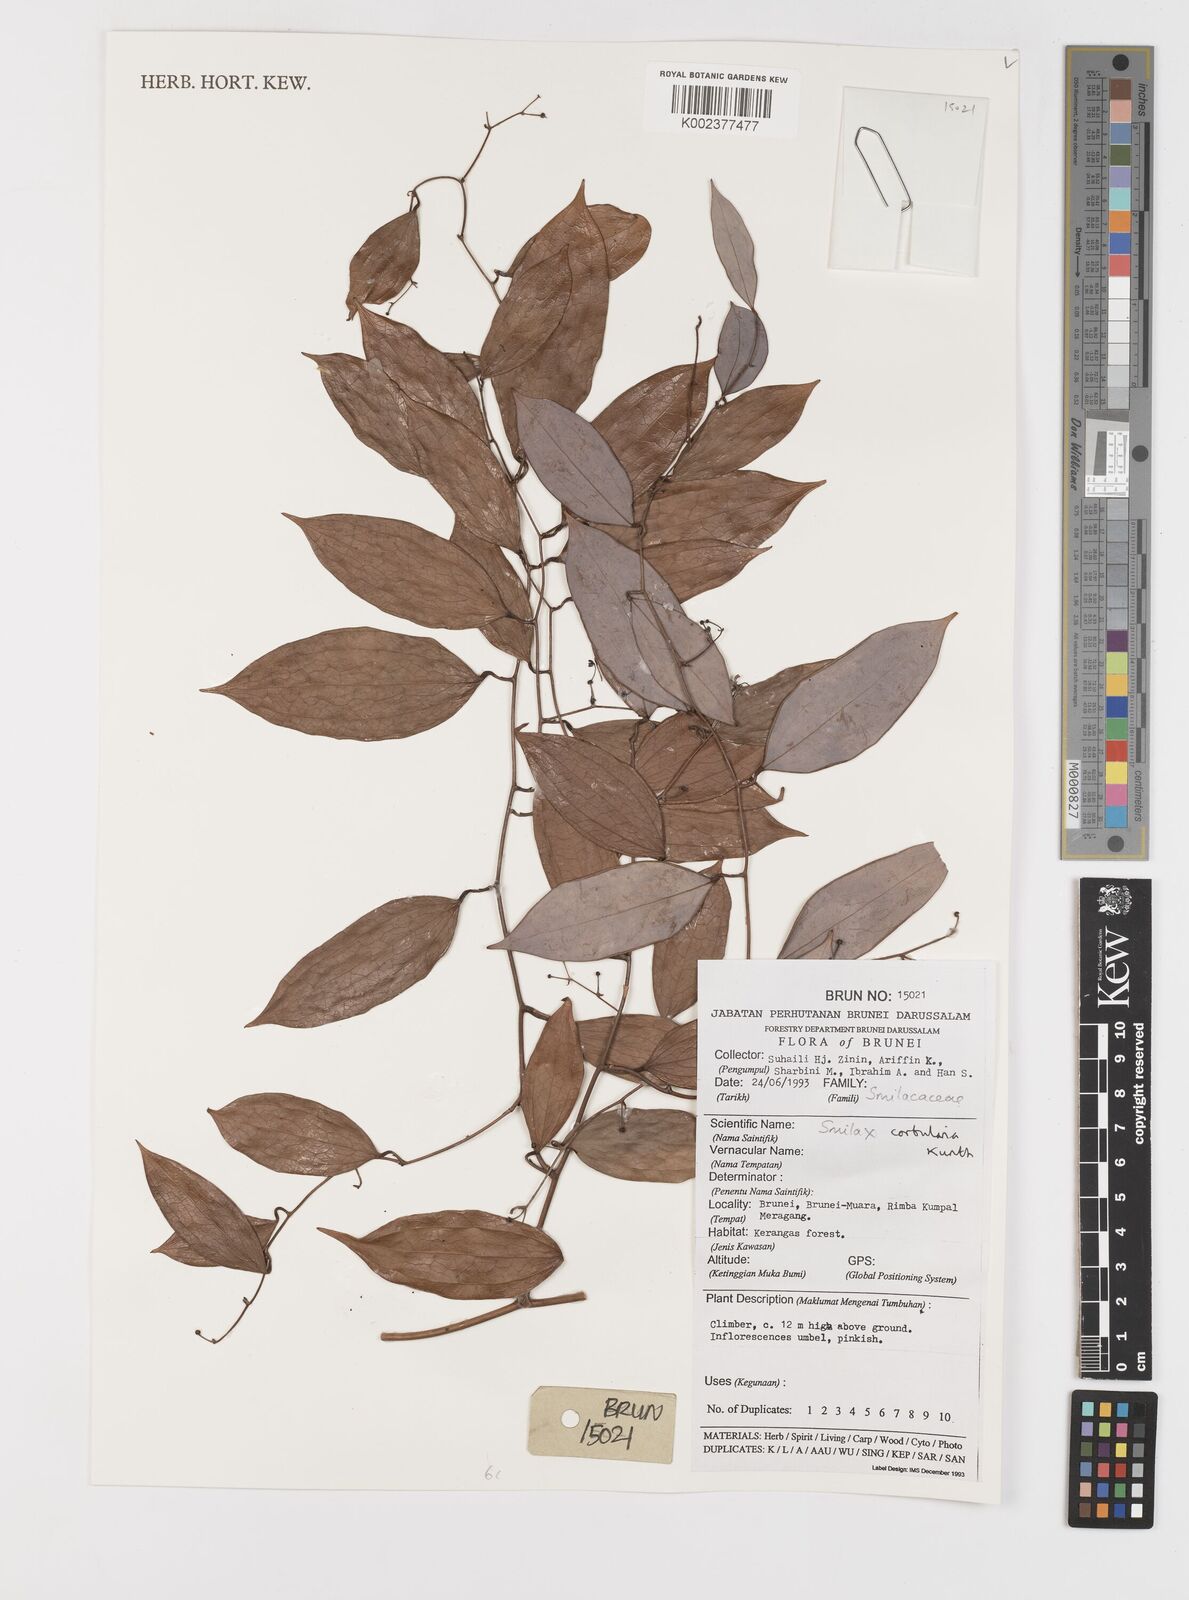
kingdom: Plantae
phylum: Tracheophyta
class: Liliopsida
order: Liliales
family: Smilacaceae
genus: Smilax
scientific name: Smilax corbularia
